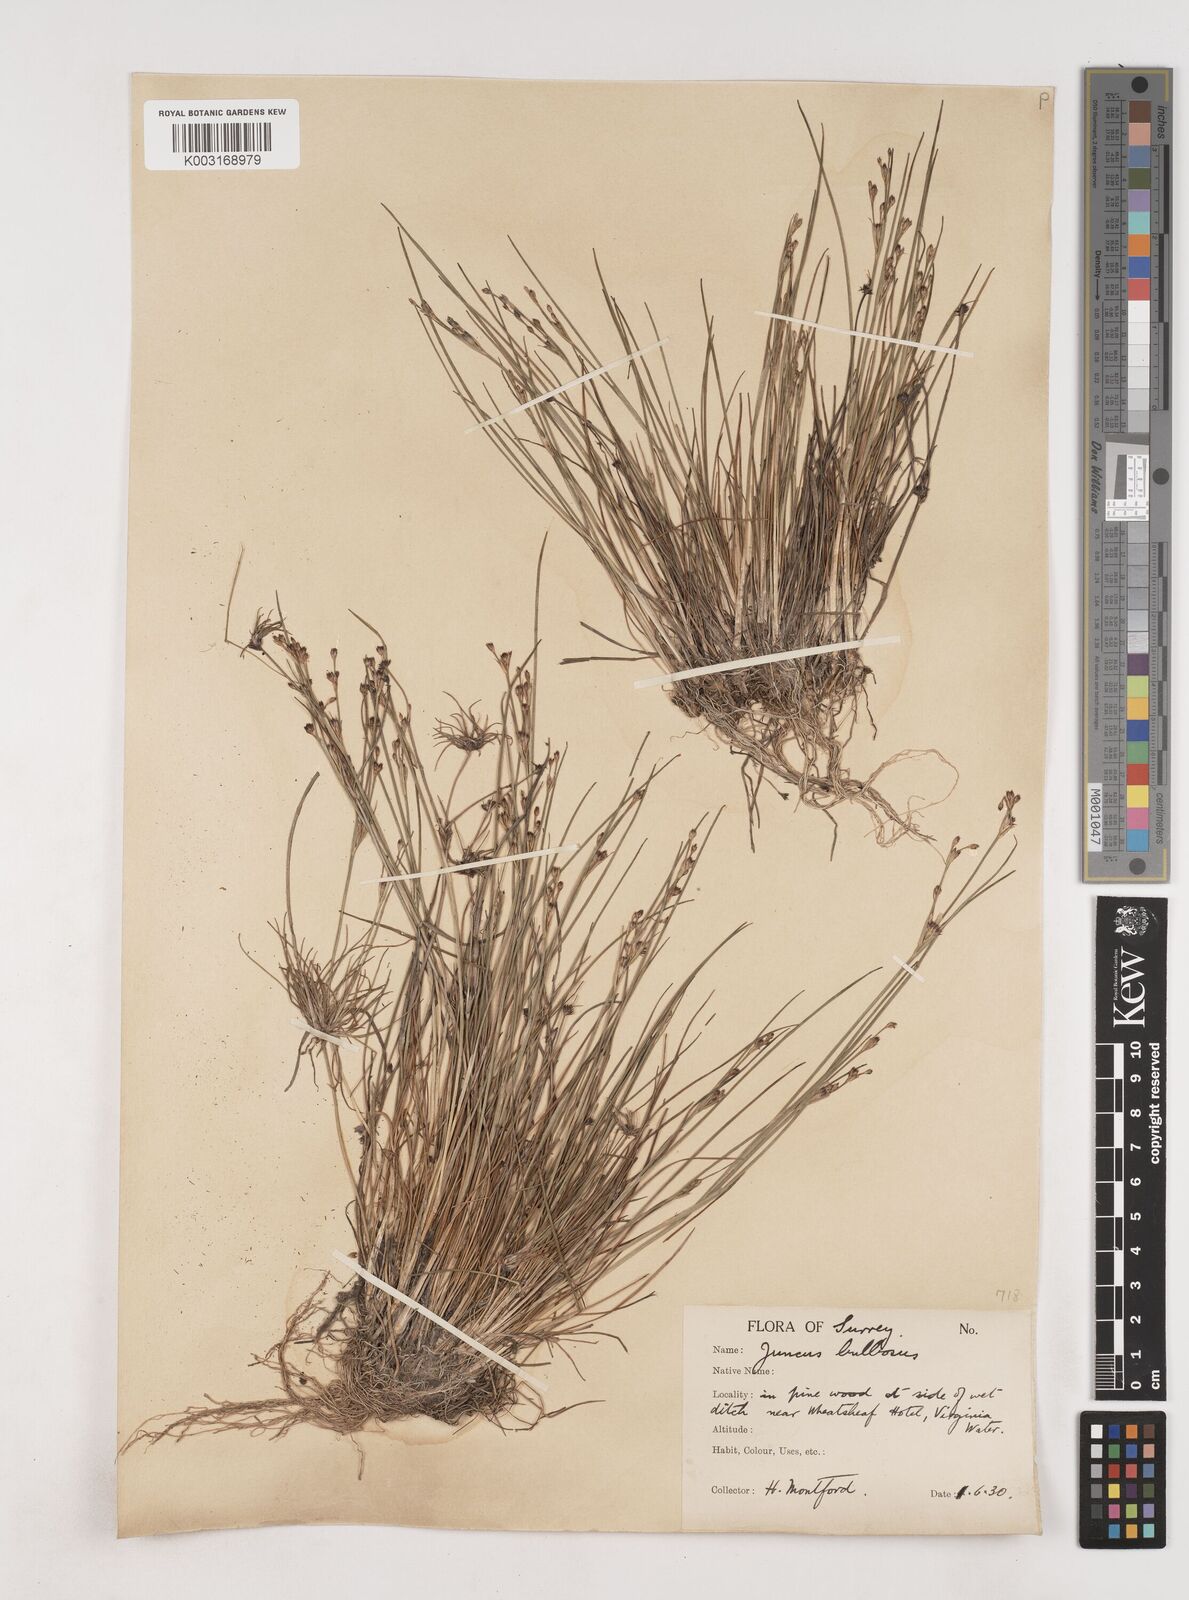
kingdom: Plantae
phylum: Tracheophyta
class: Liliopsida
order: Poales
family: Juncaceae
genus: Juncus
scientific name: Juncus bulbosus
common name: Bulbous rush
